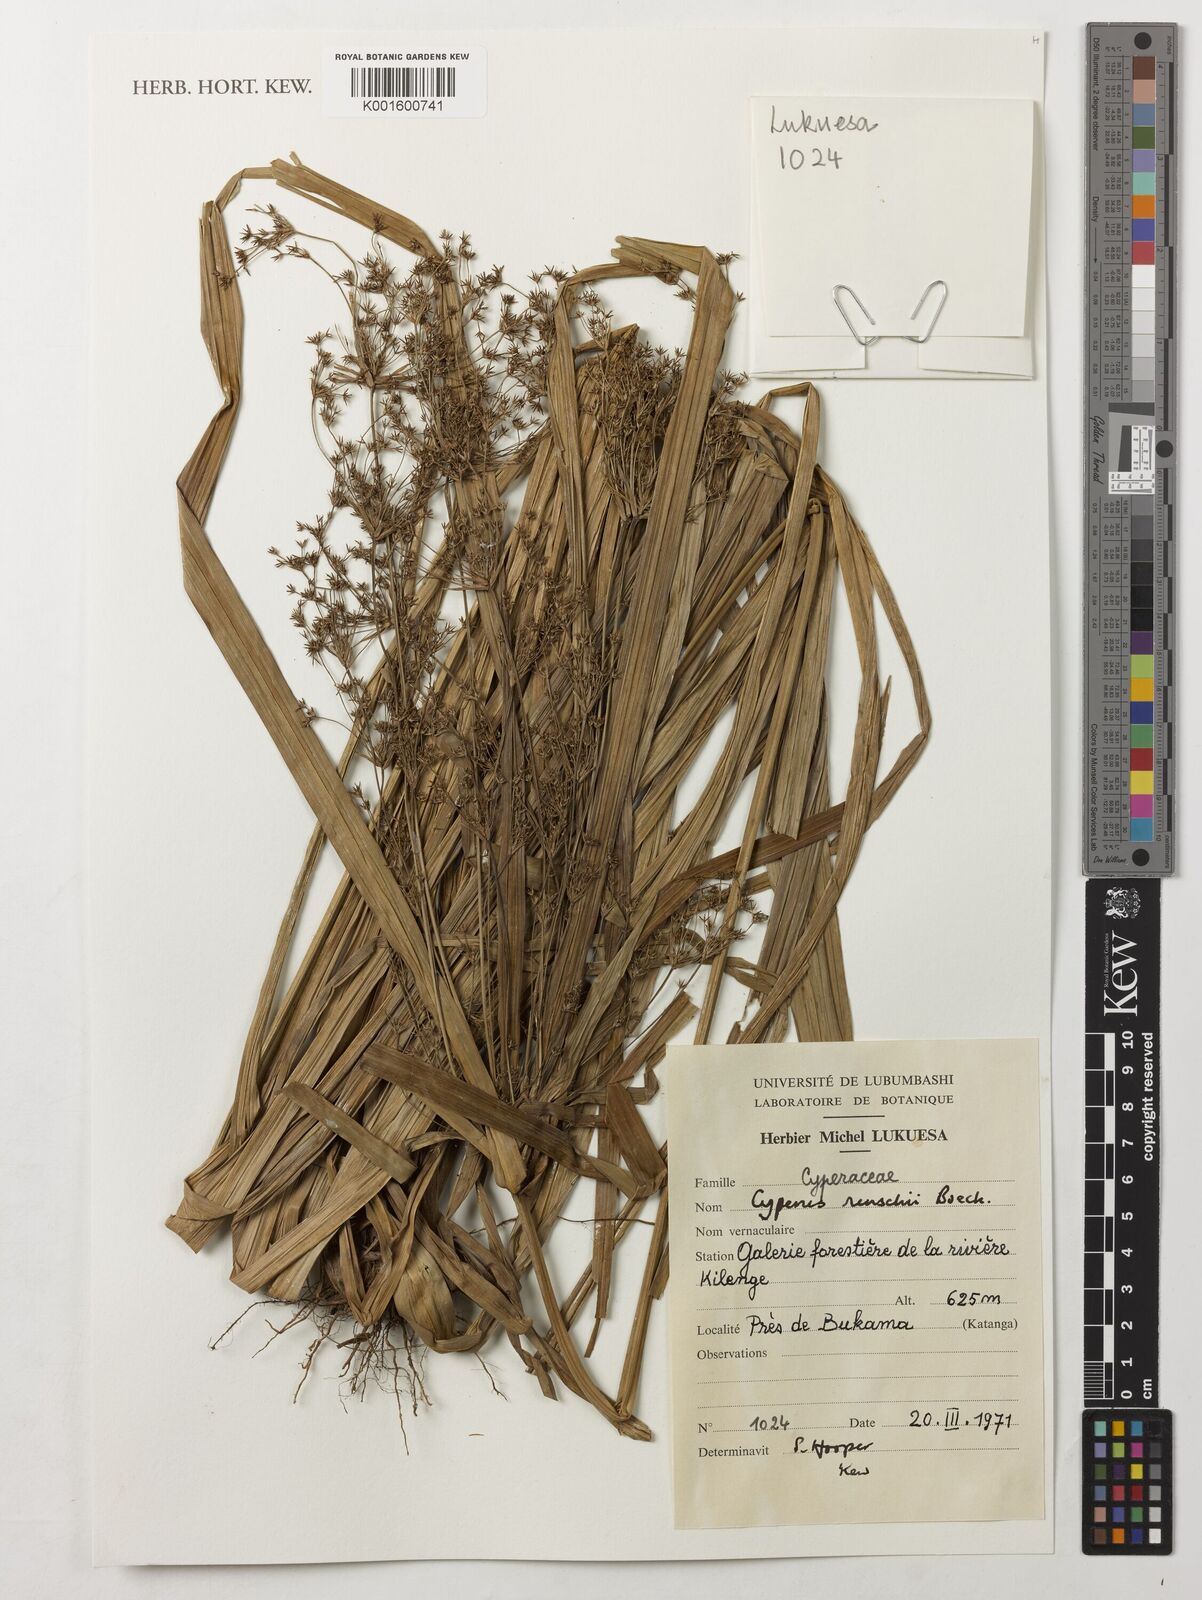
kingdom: Plantae
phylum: Tracheophyta
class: Liliopsida
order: Poales
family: Cyperaceae
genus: Cyperus
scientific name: Cyperus
